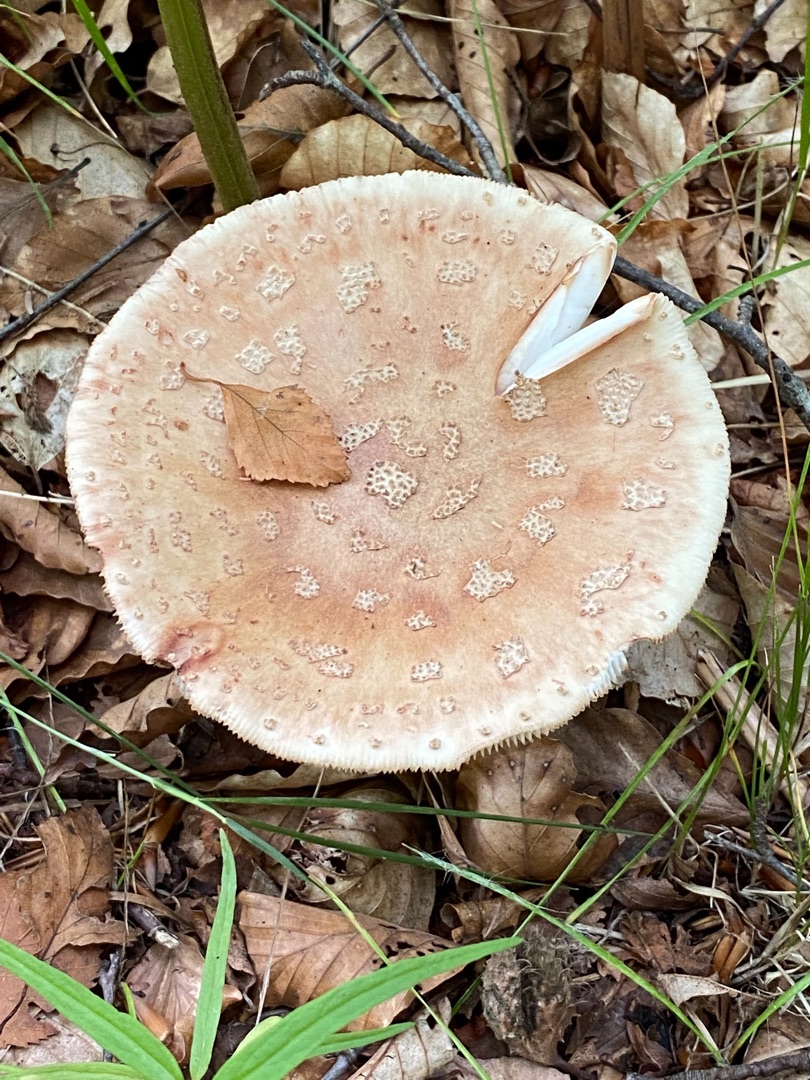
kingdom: Fungi
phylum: Basidiomycota
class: Agaricomycetes
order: Agaricales
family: Amanitaceae
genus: Amanita
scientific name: Amanita rubescens
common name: Rødmende fluesvamp
